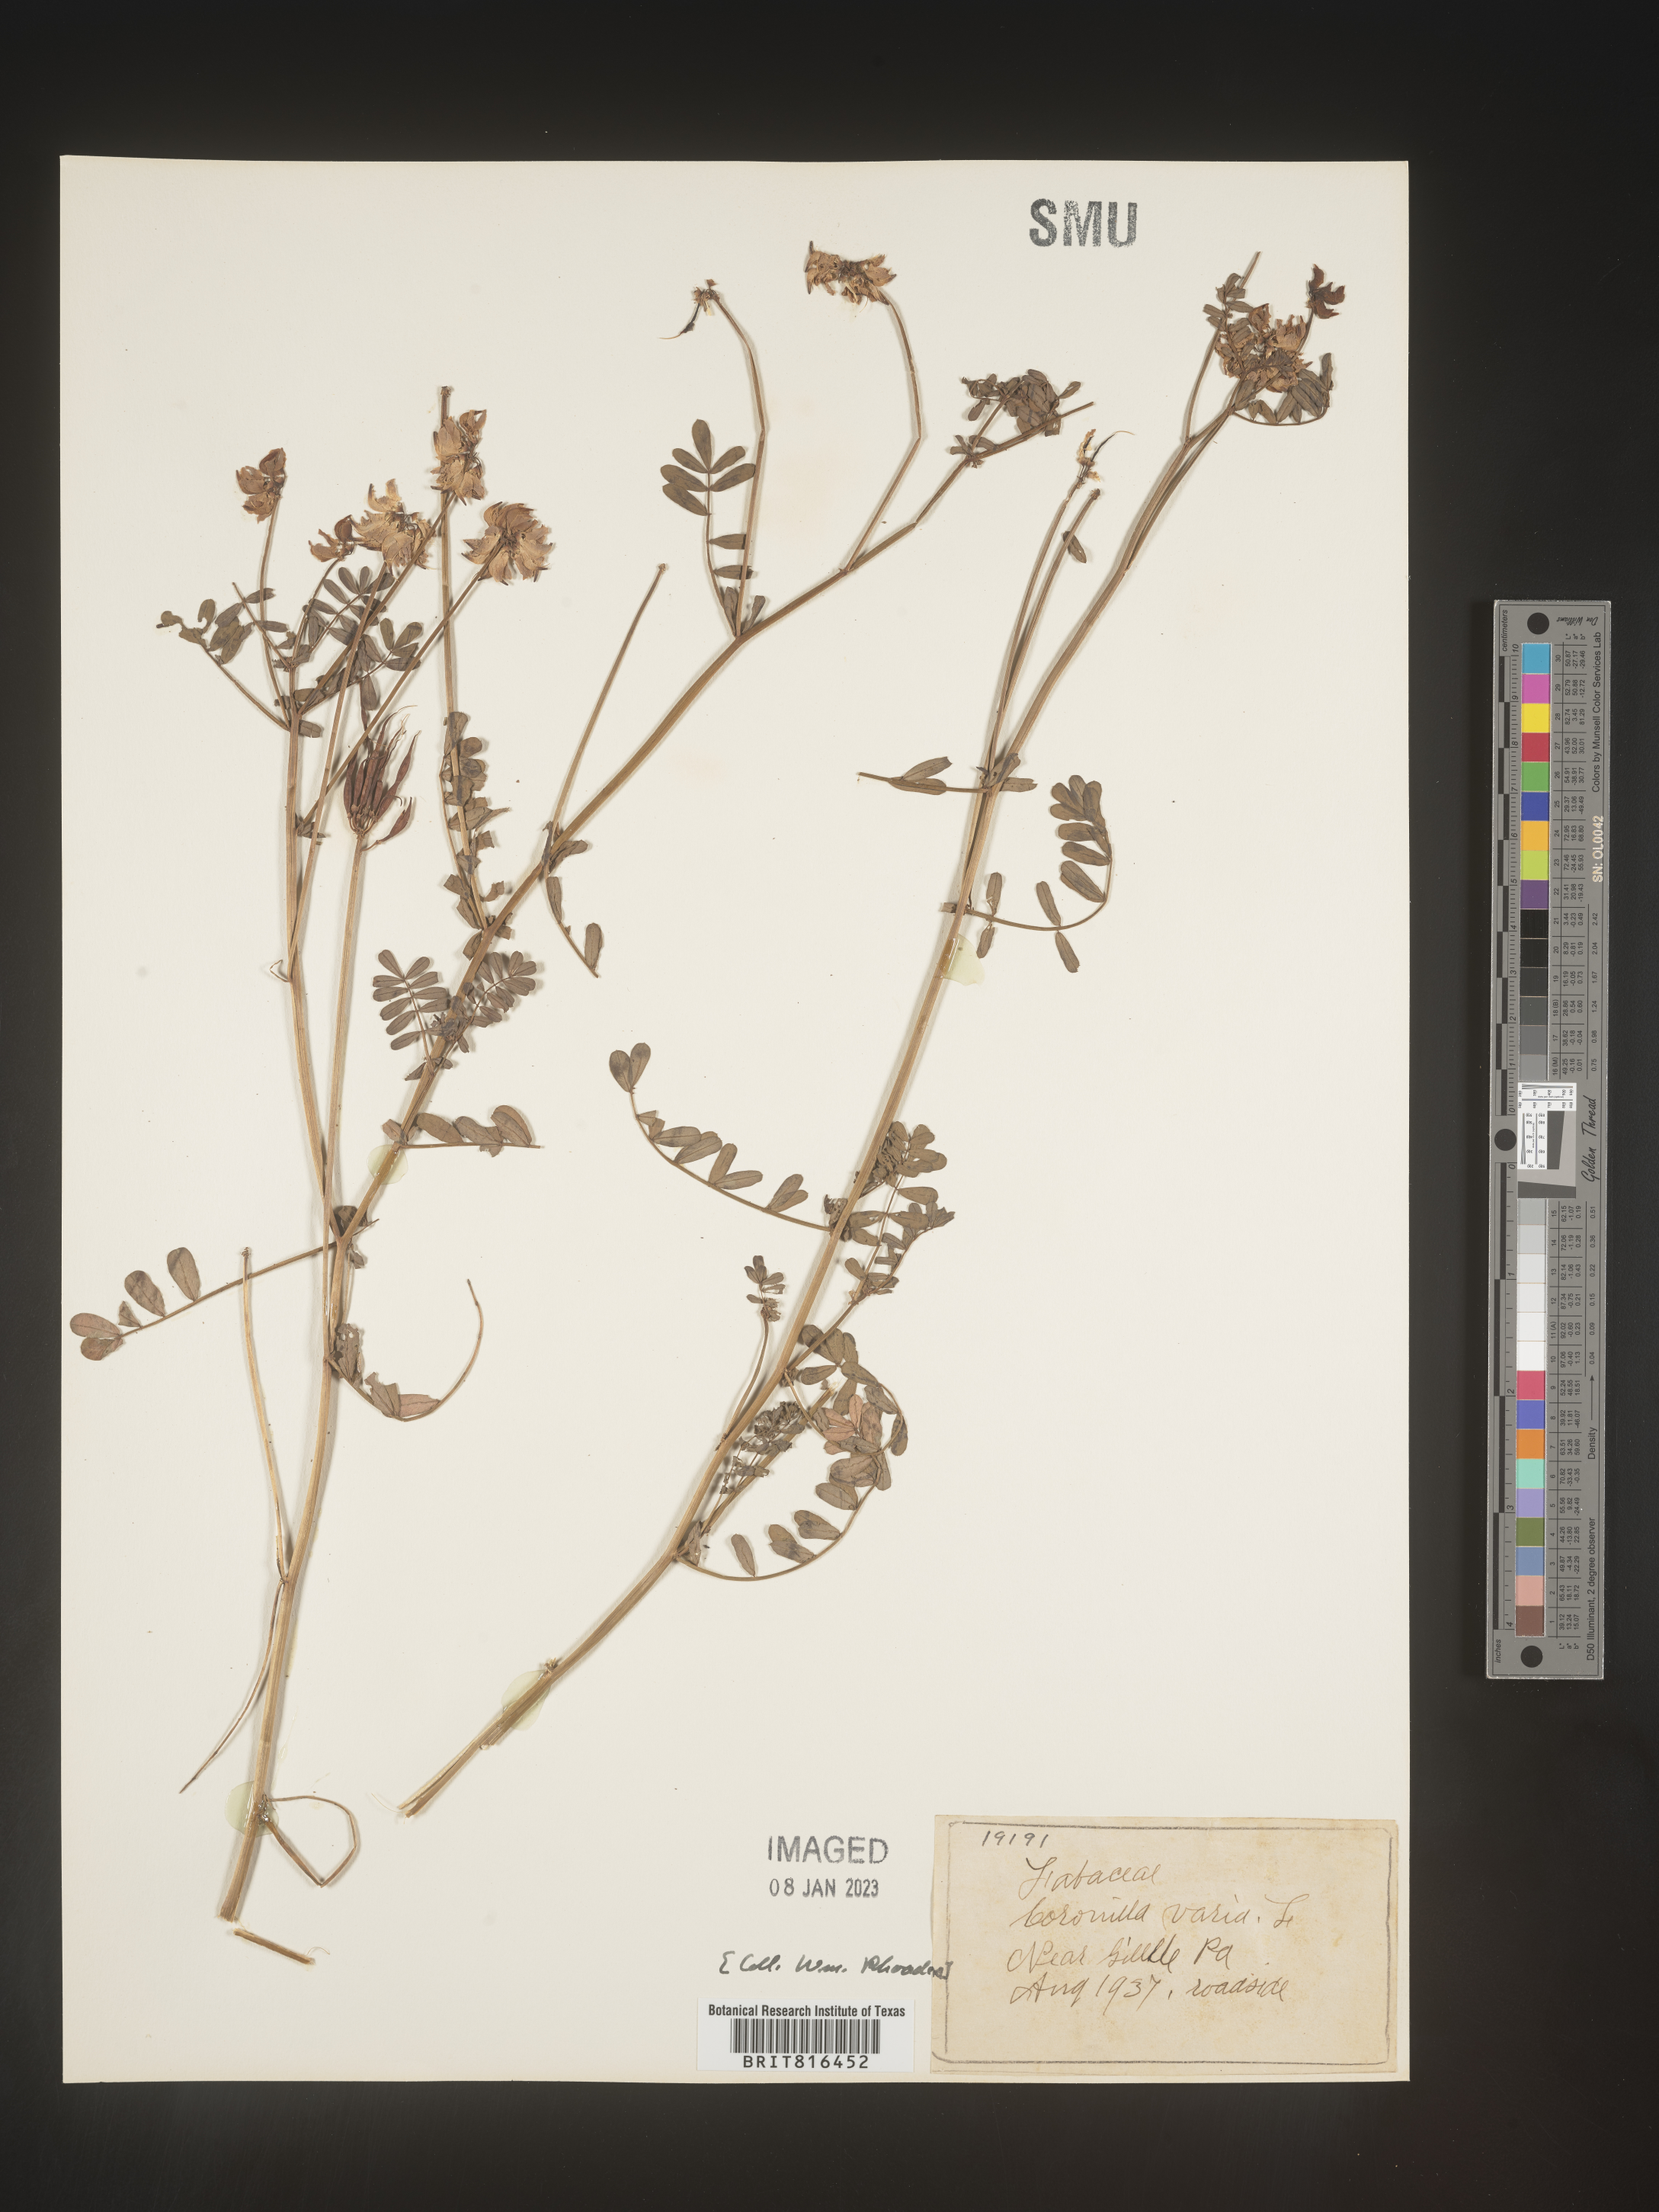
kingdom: Plantae
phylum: Tracheophyta
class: Magnoliopsida
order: Fabales
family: Fabaceae
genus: Coronilla
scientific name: Coronilla
